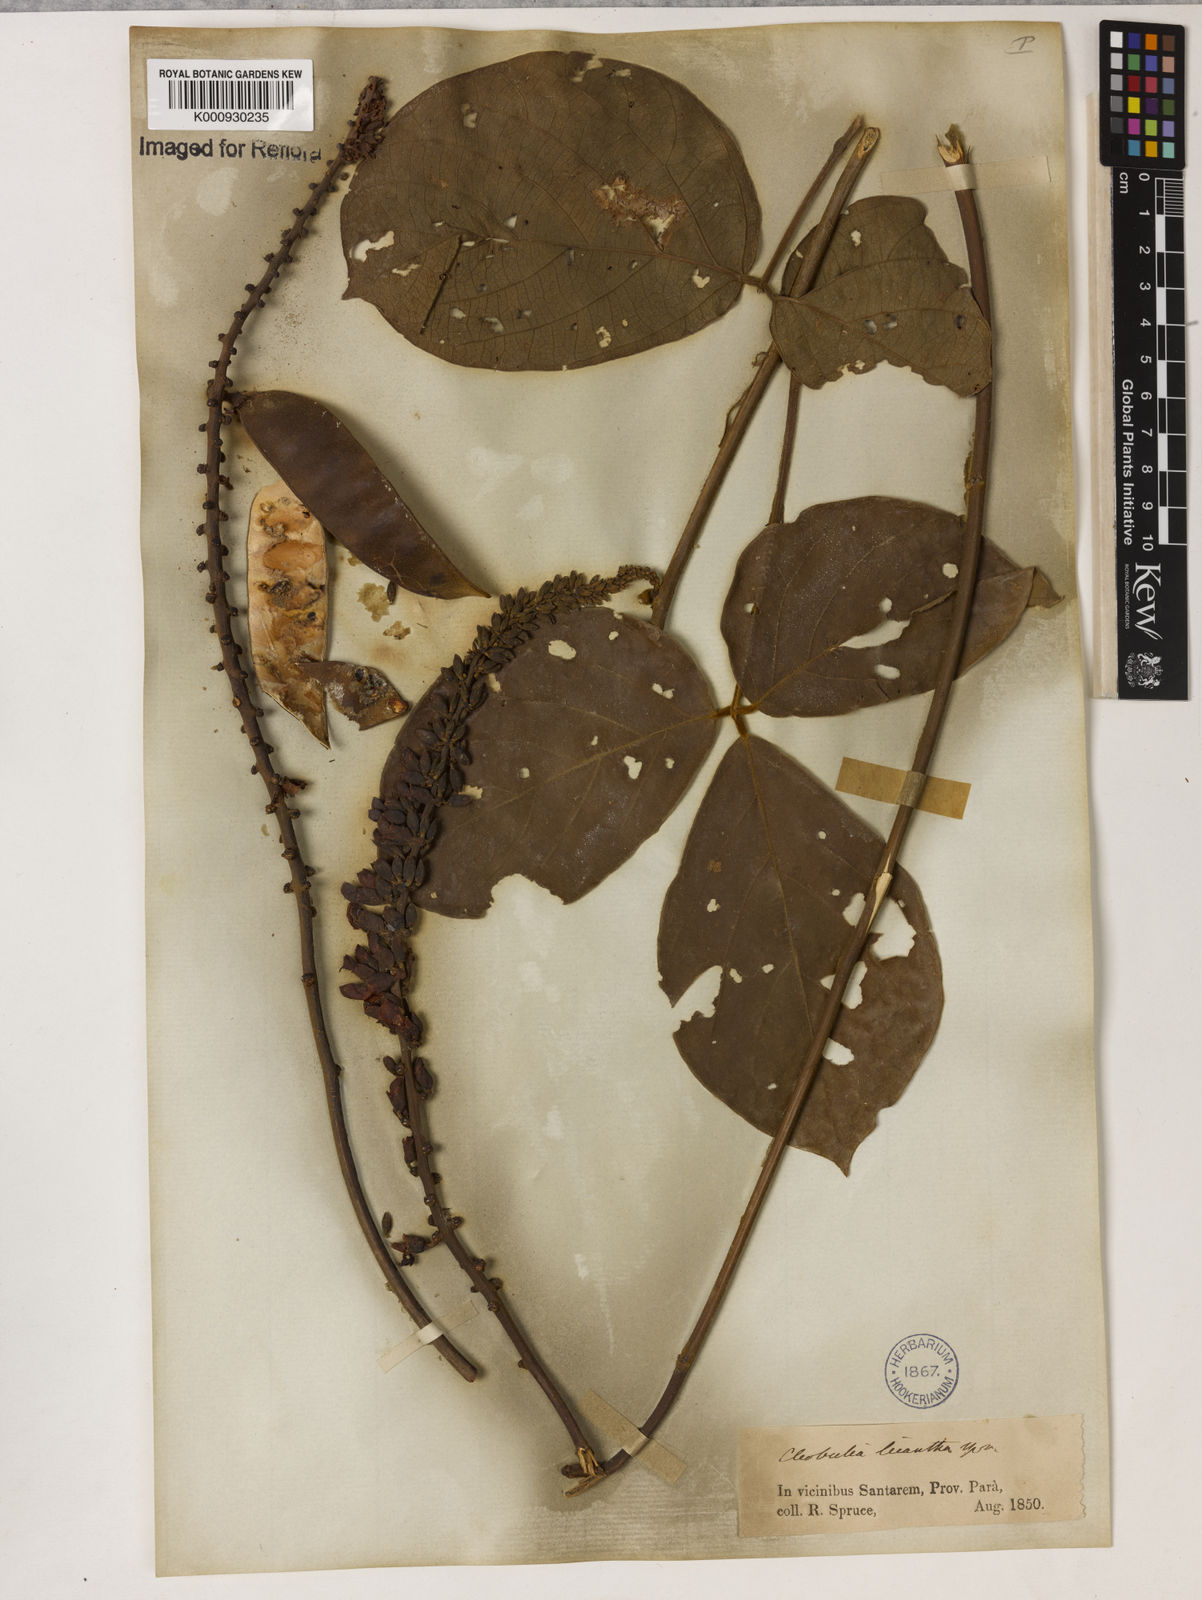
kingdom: Plantae
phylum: Tracheophyta
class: Magnoliopsida
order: Fabales
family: Fabaceae
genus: Cleobulia
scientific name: Cleobulia leiantha
